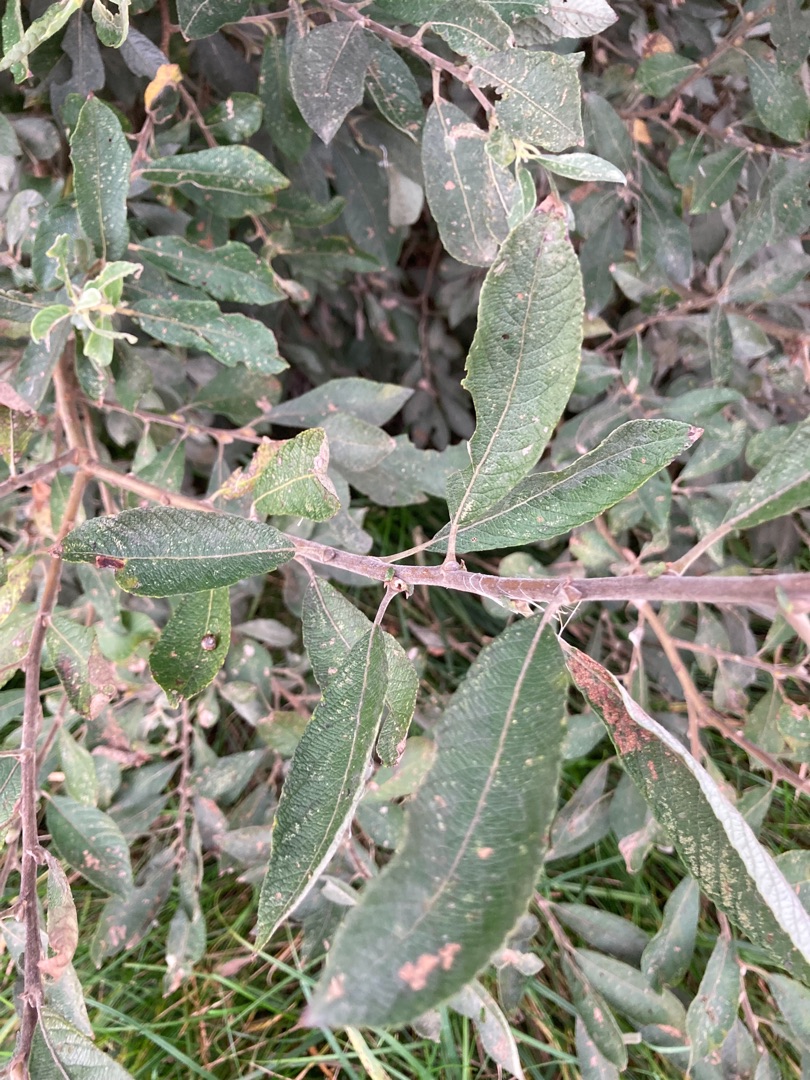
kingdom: Plantae
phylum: Tracheophyta
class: Magnoliopsida
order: Malpighiales
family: Salicaceae
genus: Salix
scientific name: Salix cinerea
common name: Grå-pil
